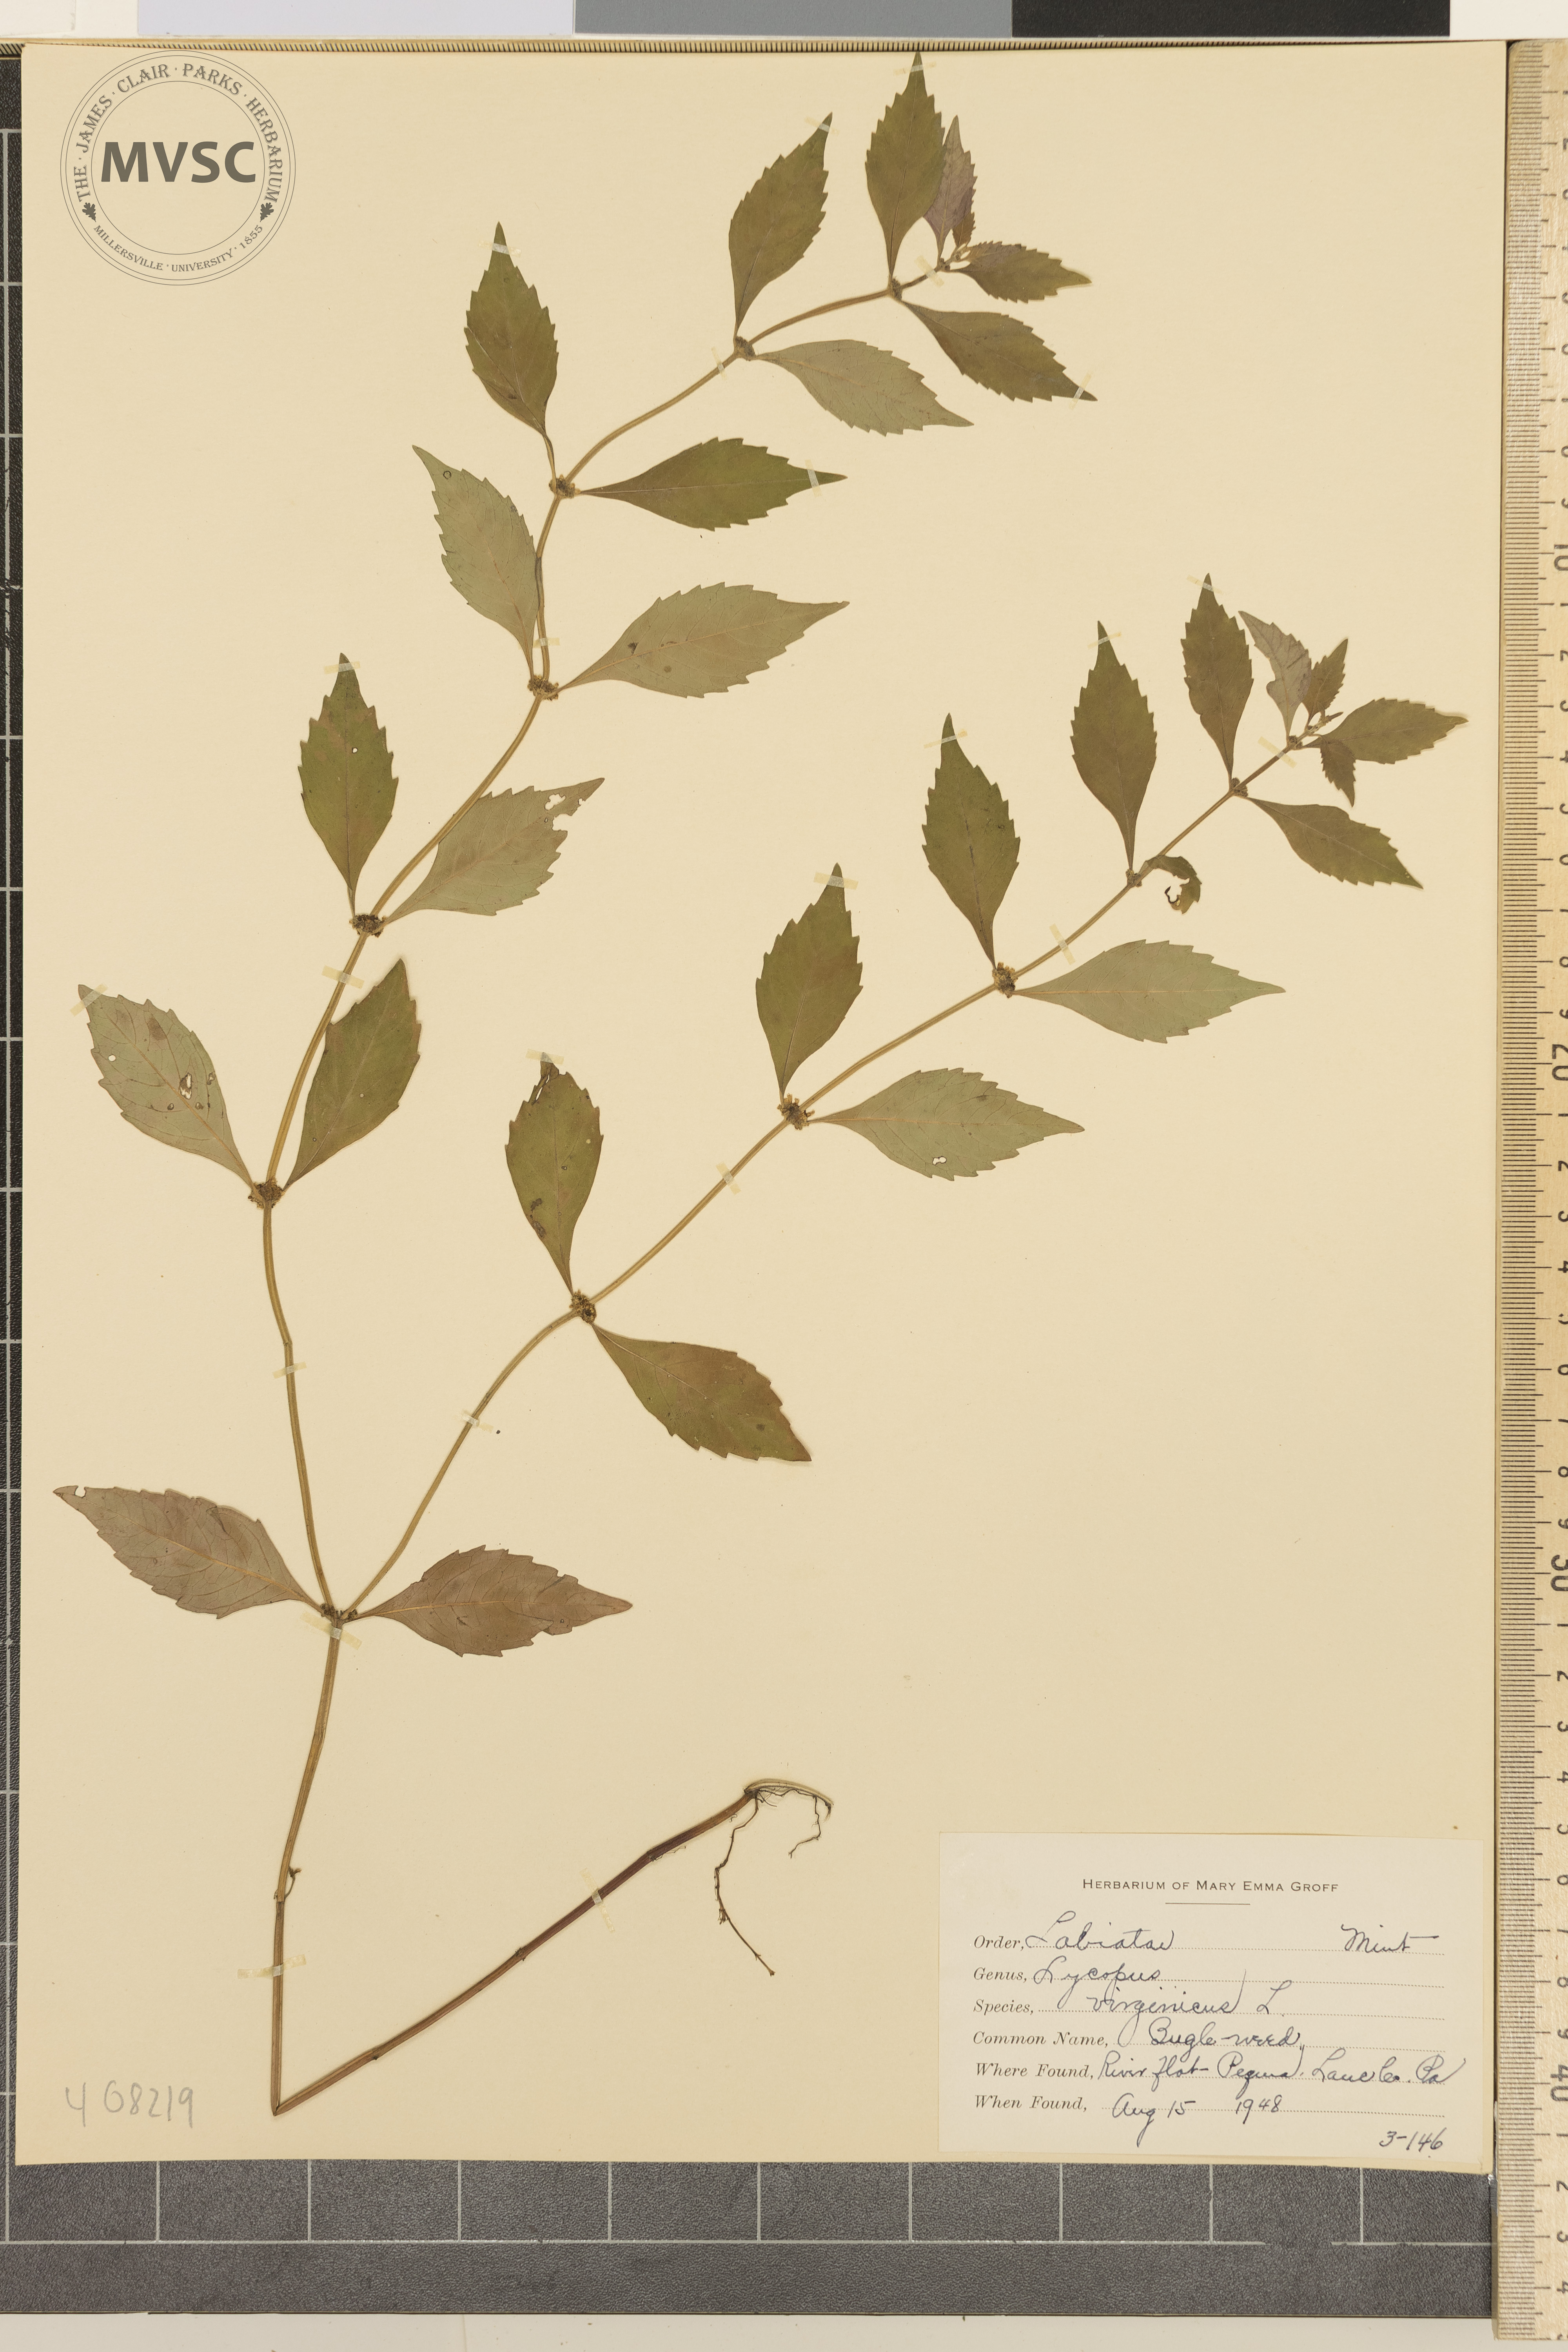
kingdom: Plantae
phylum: Tracheophyta
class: Magnoliopsida
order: Lamiales
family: Lamiaceae
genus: Lycopus
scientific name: Lycopus virginicus
